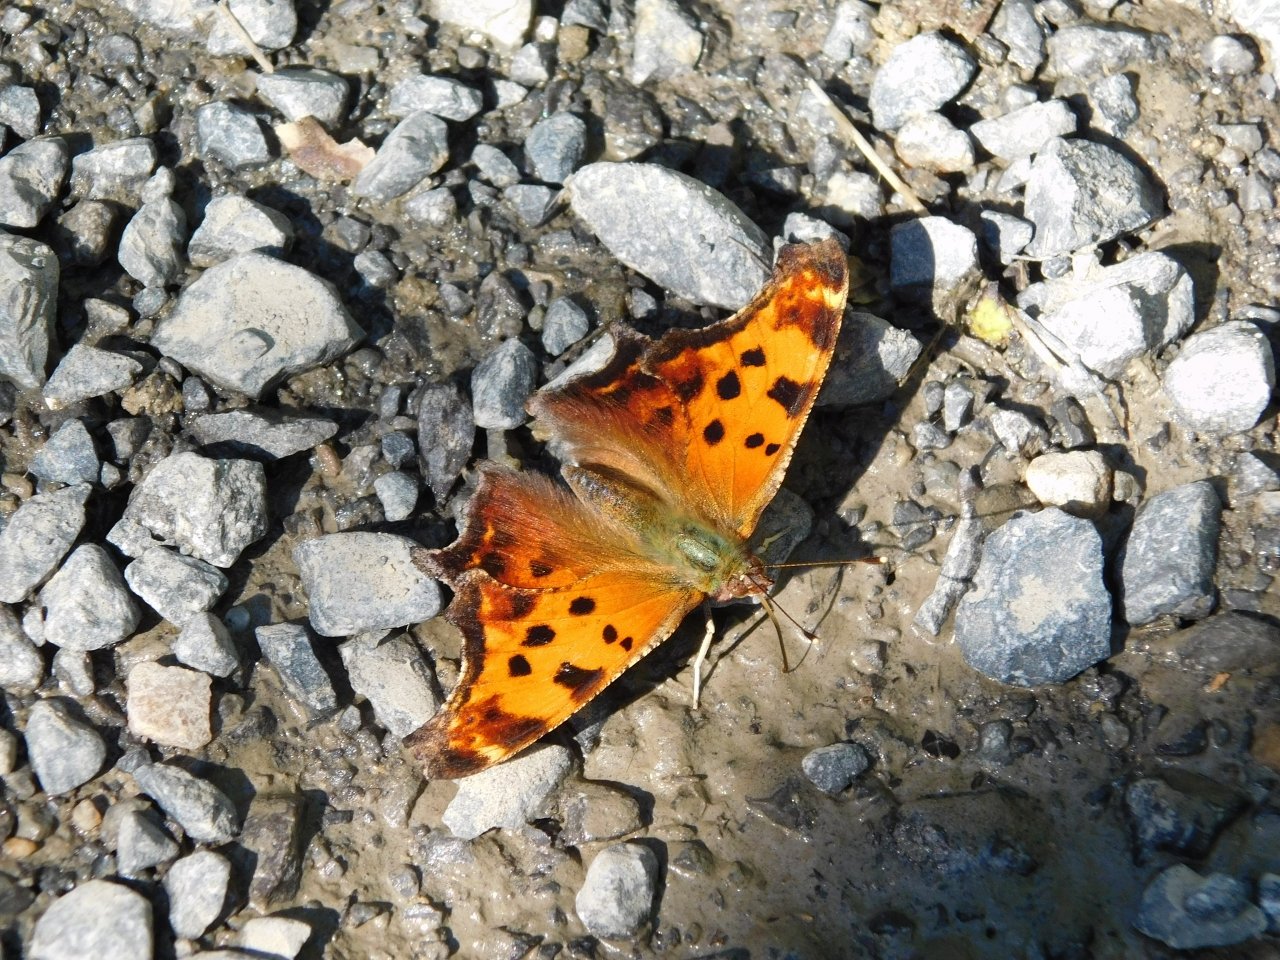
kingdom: Animalia
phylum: Arthropoda
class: Insecta
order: Lepidoptera
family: Nymphalidae
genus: Polygonia
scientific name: Polygonia comma
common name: Eastern Comma
